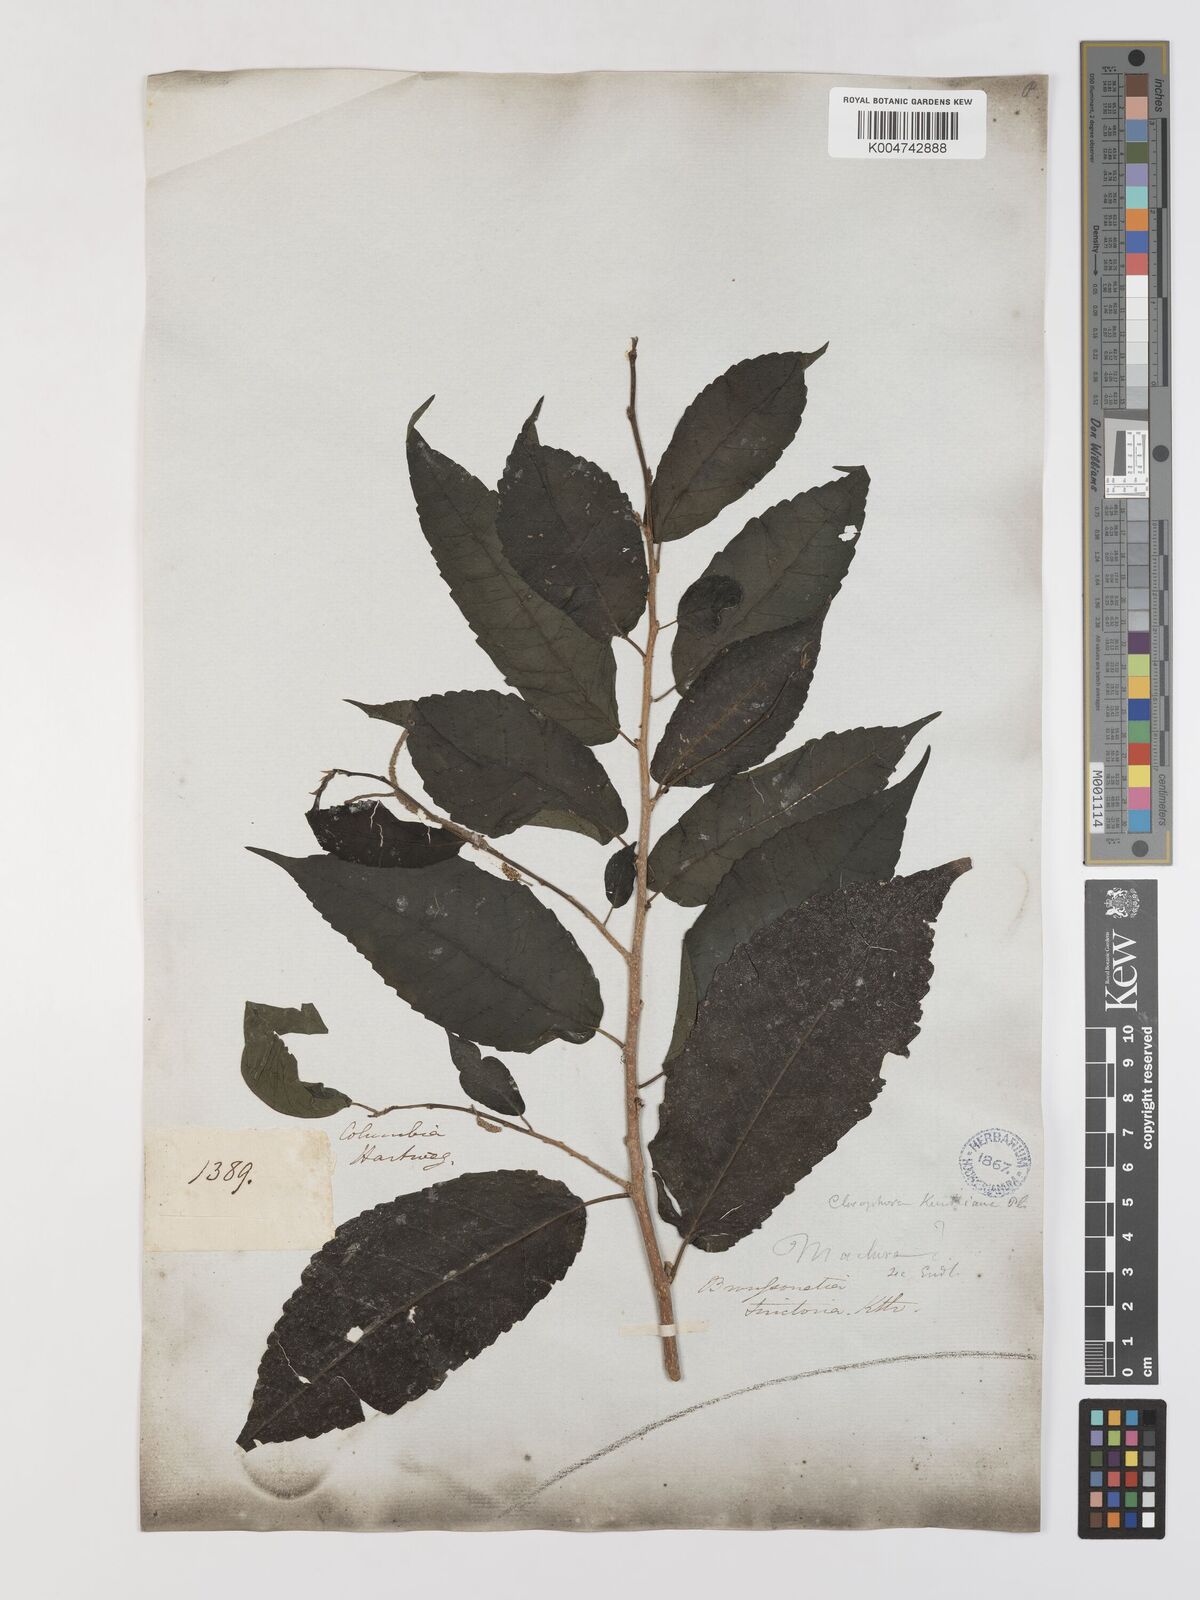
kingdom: Plantae
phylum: Tracheophyta
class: Magnoliopsida
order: Rosales
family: Moraceae
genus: Maclura
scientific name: Maclura tinctoria
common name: Old fustic
